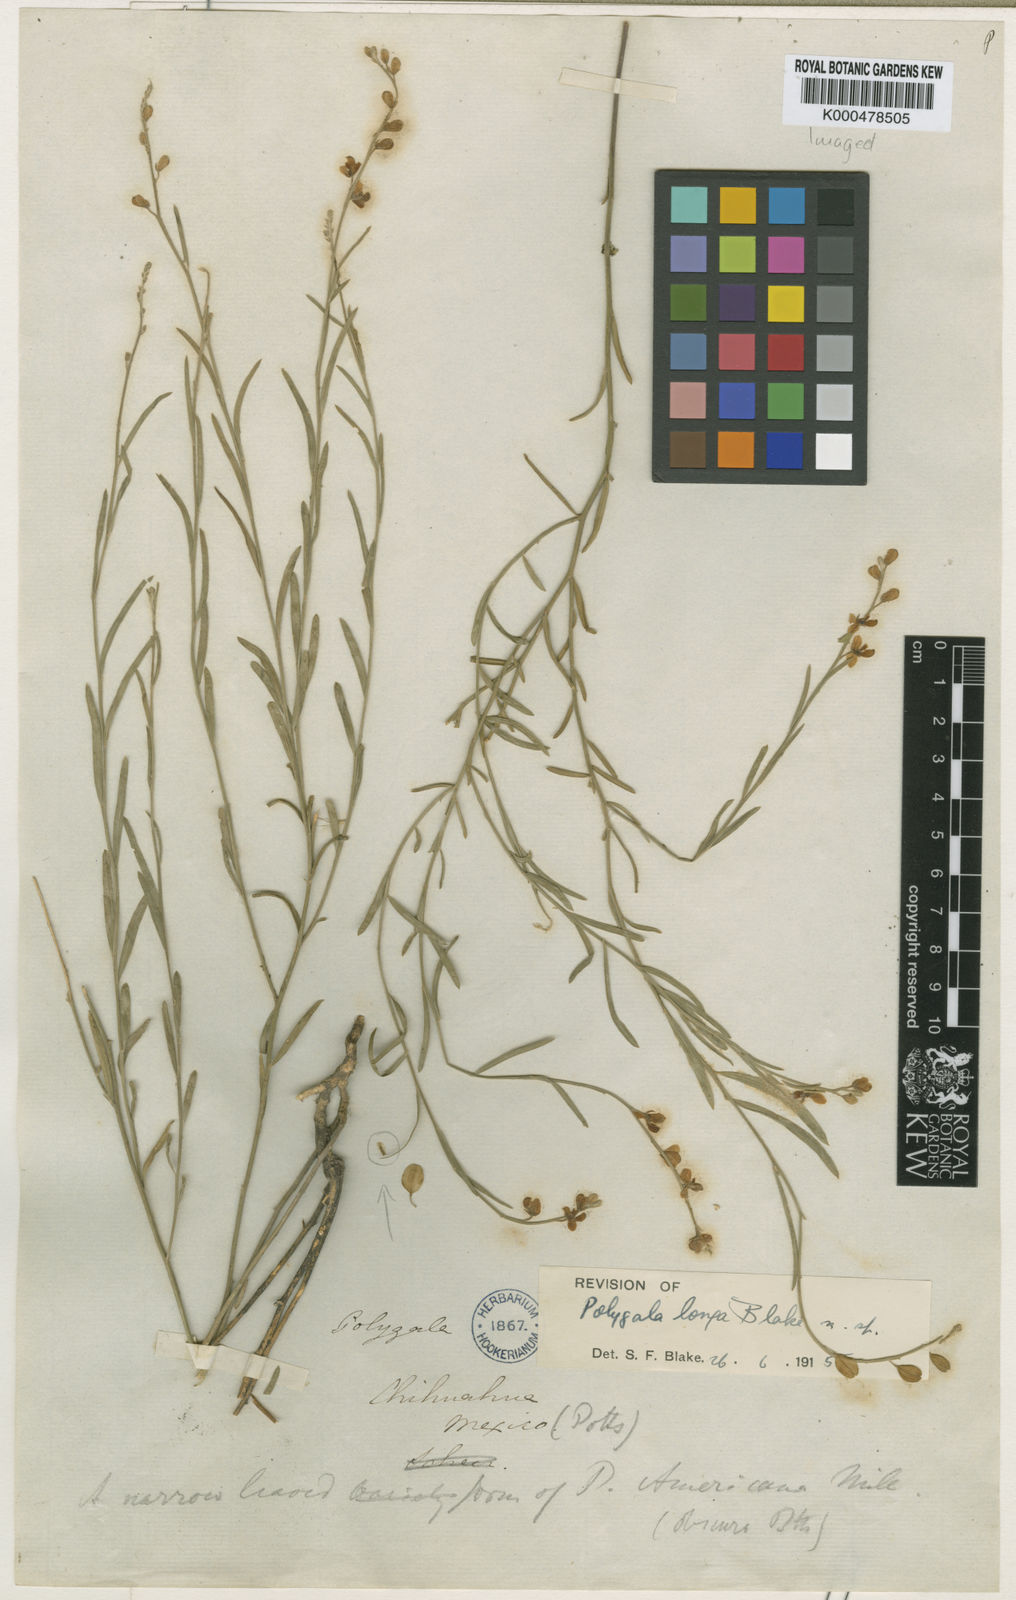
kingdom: Plantae
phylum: Tracheophyta
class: Magnoliopsida
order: Fabales
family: Polygalaceae
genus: Hebecarpa
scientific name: Hebecarpa barbeyana
